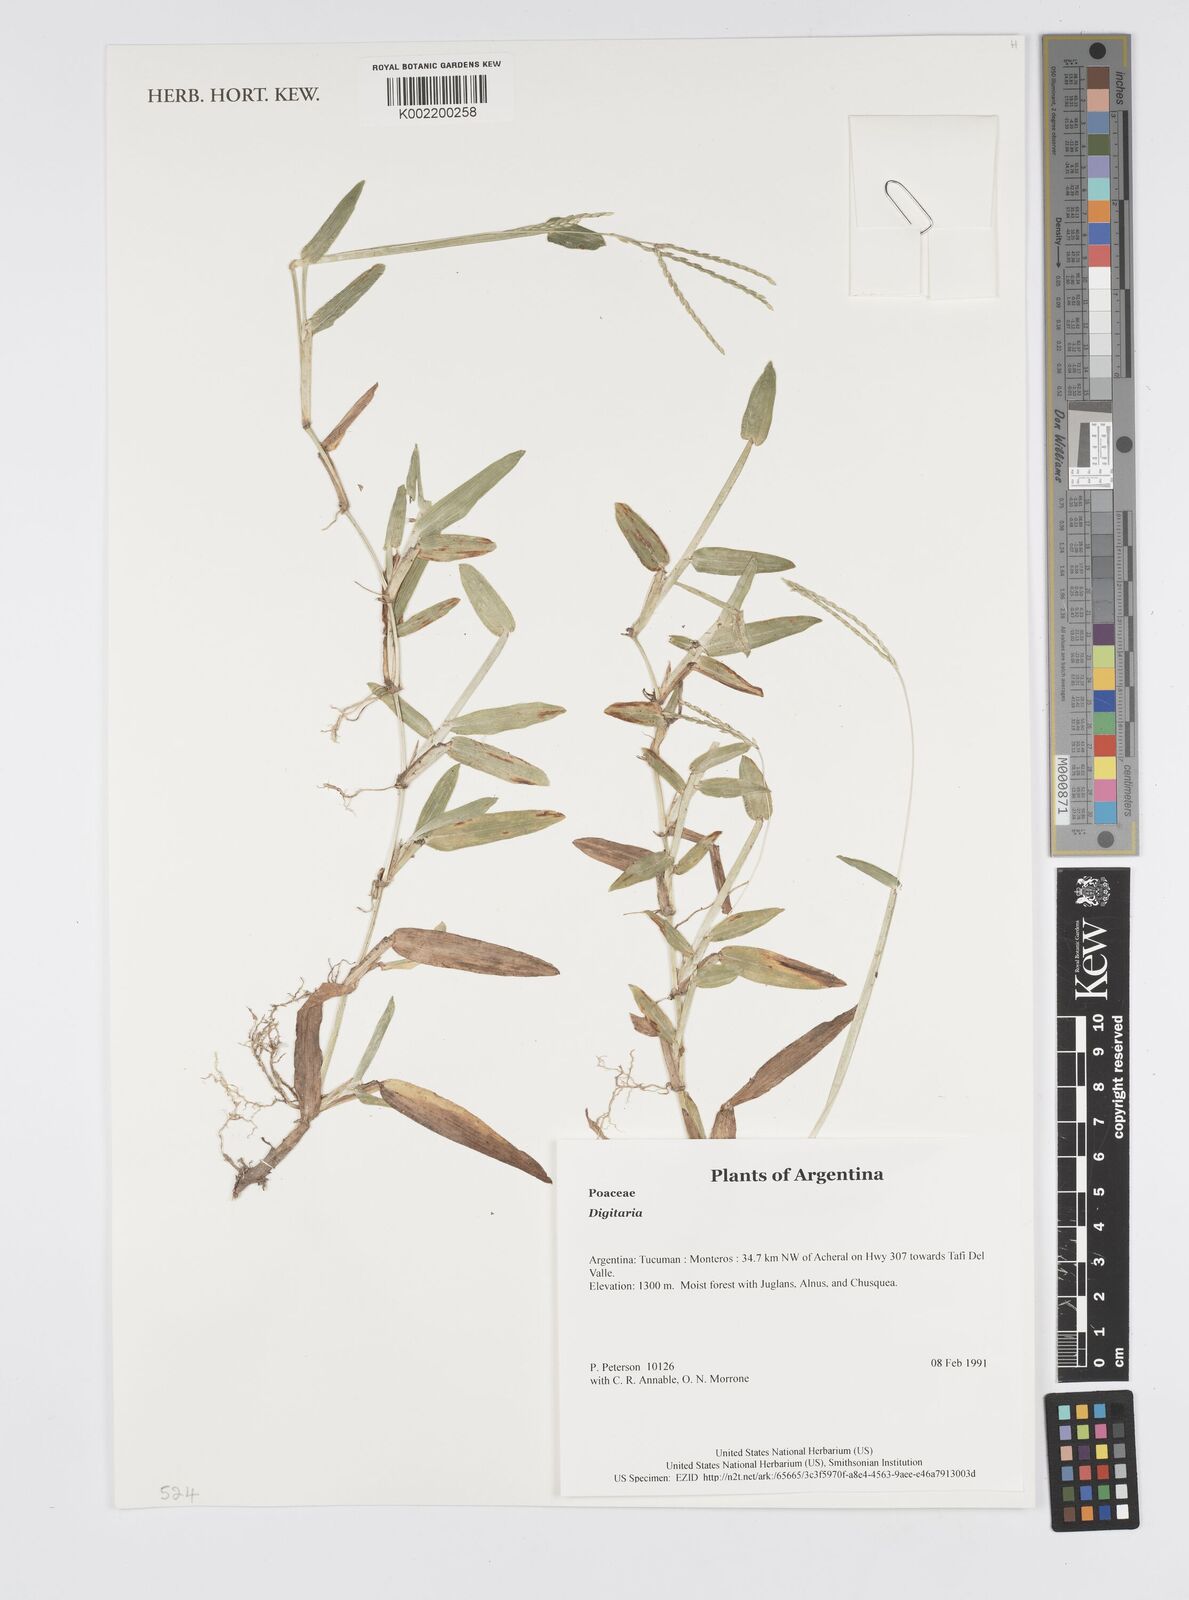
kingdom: Plantae
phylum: Tracheophyta
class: Liliopsida
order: Poales
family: Poaceae
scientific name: Poaceae
